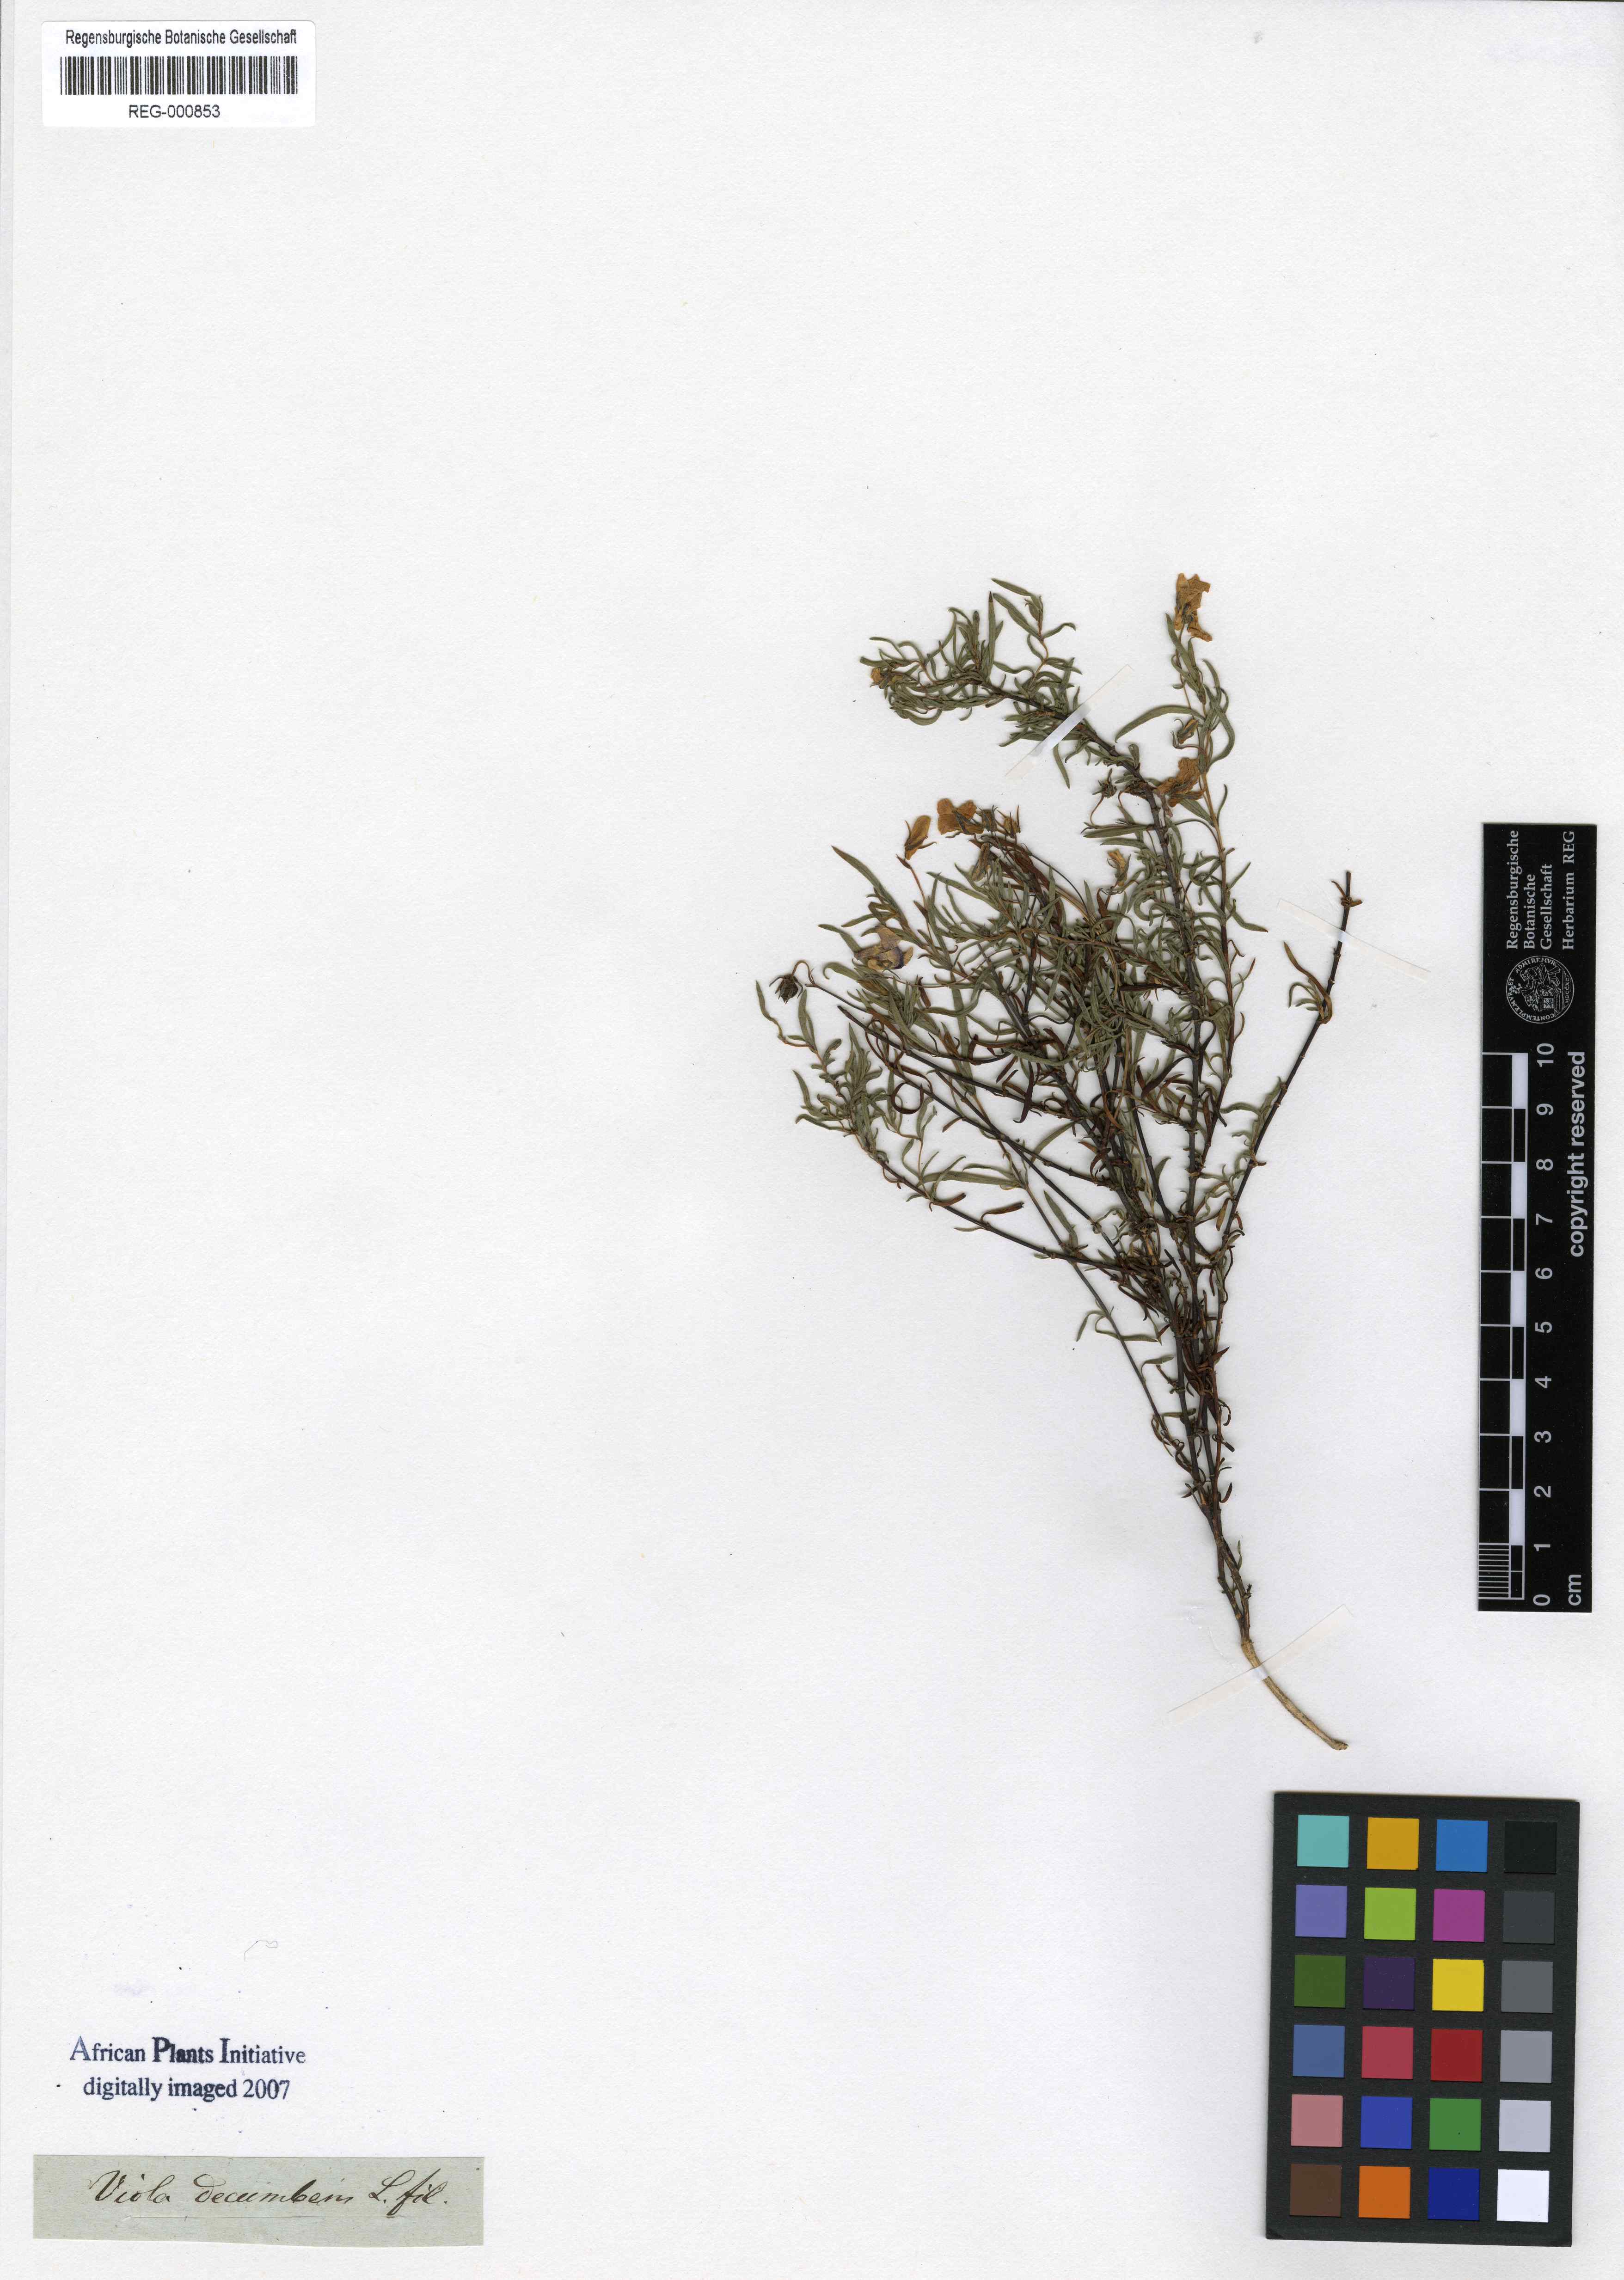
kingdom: Plantae
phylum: Tracheophyta
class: Magnoliopsida
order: Malpighiales
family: Violaceae
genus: Viola
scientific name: Viola decumbens
